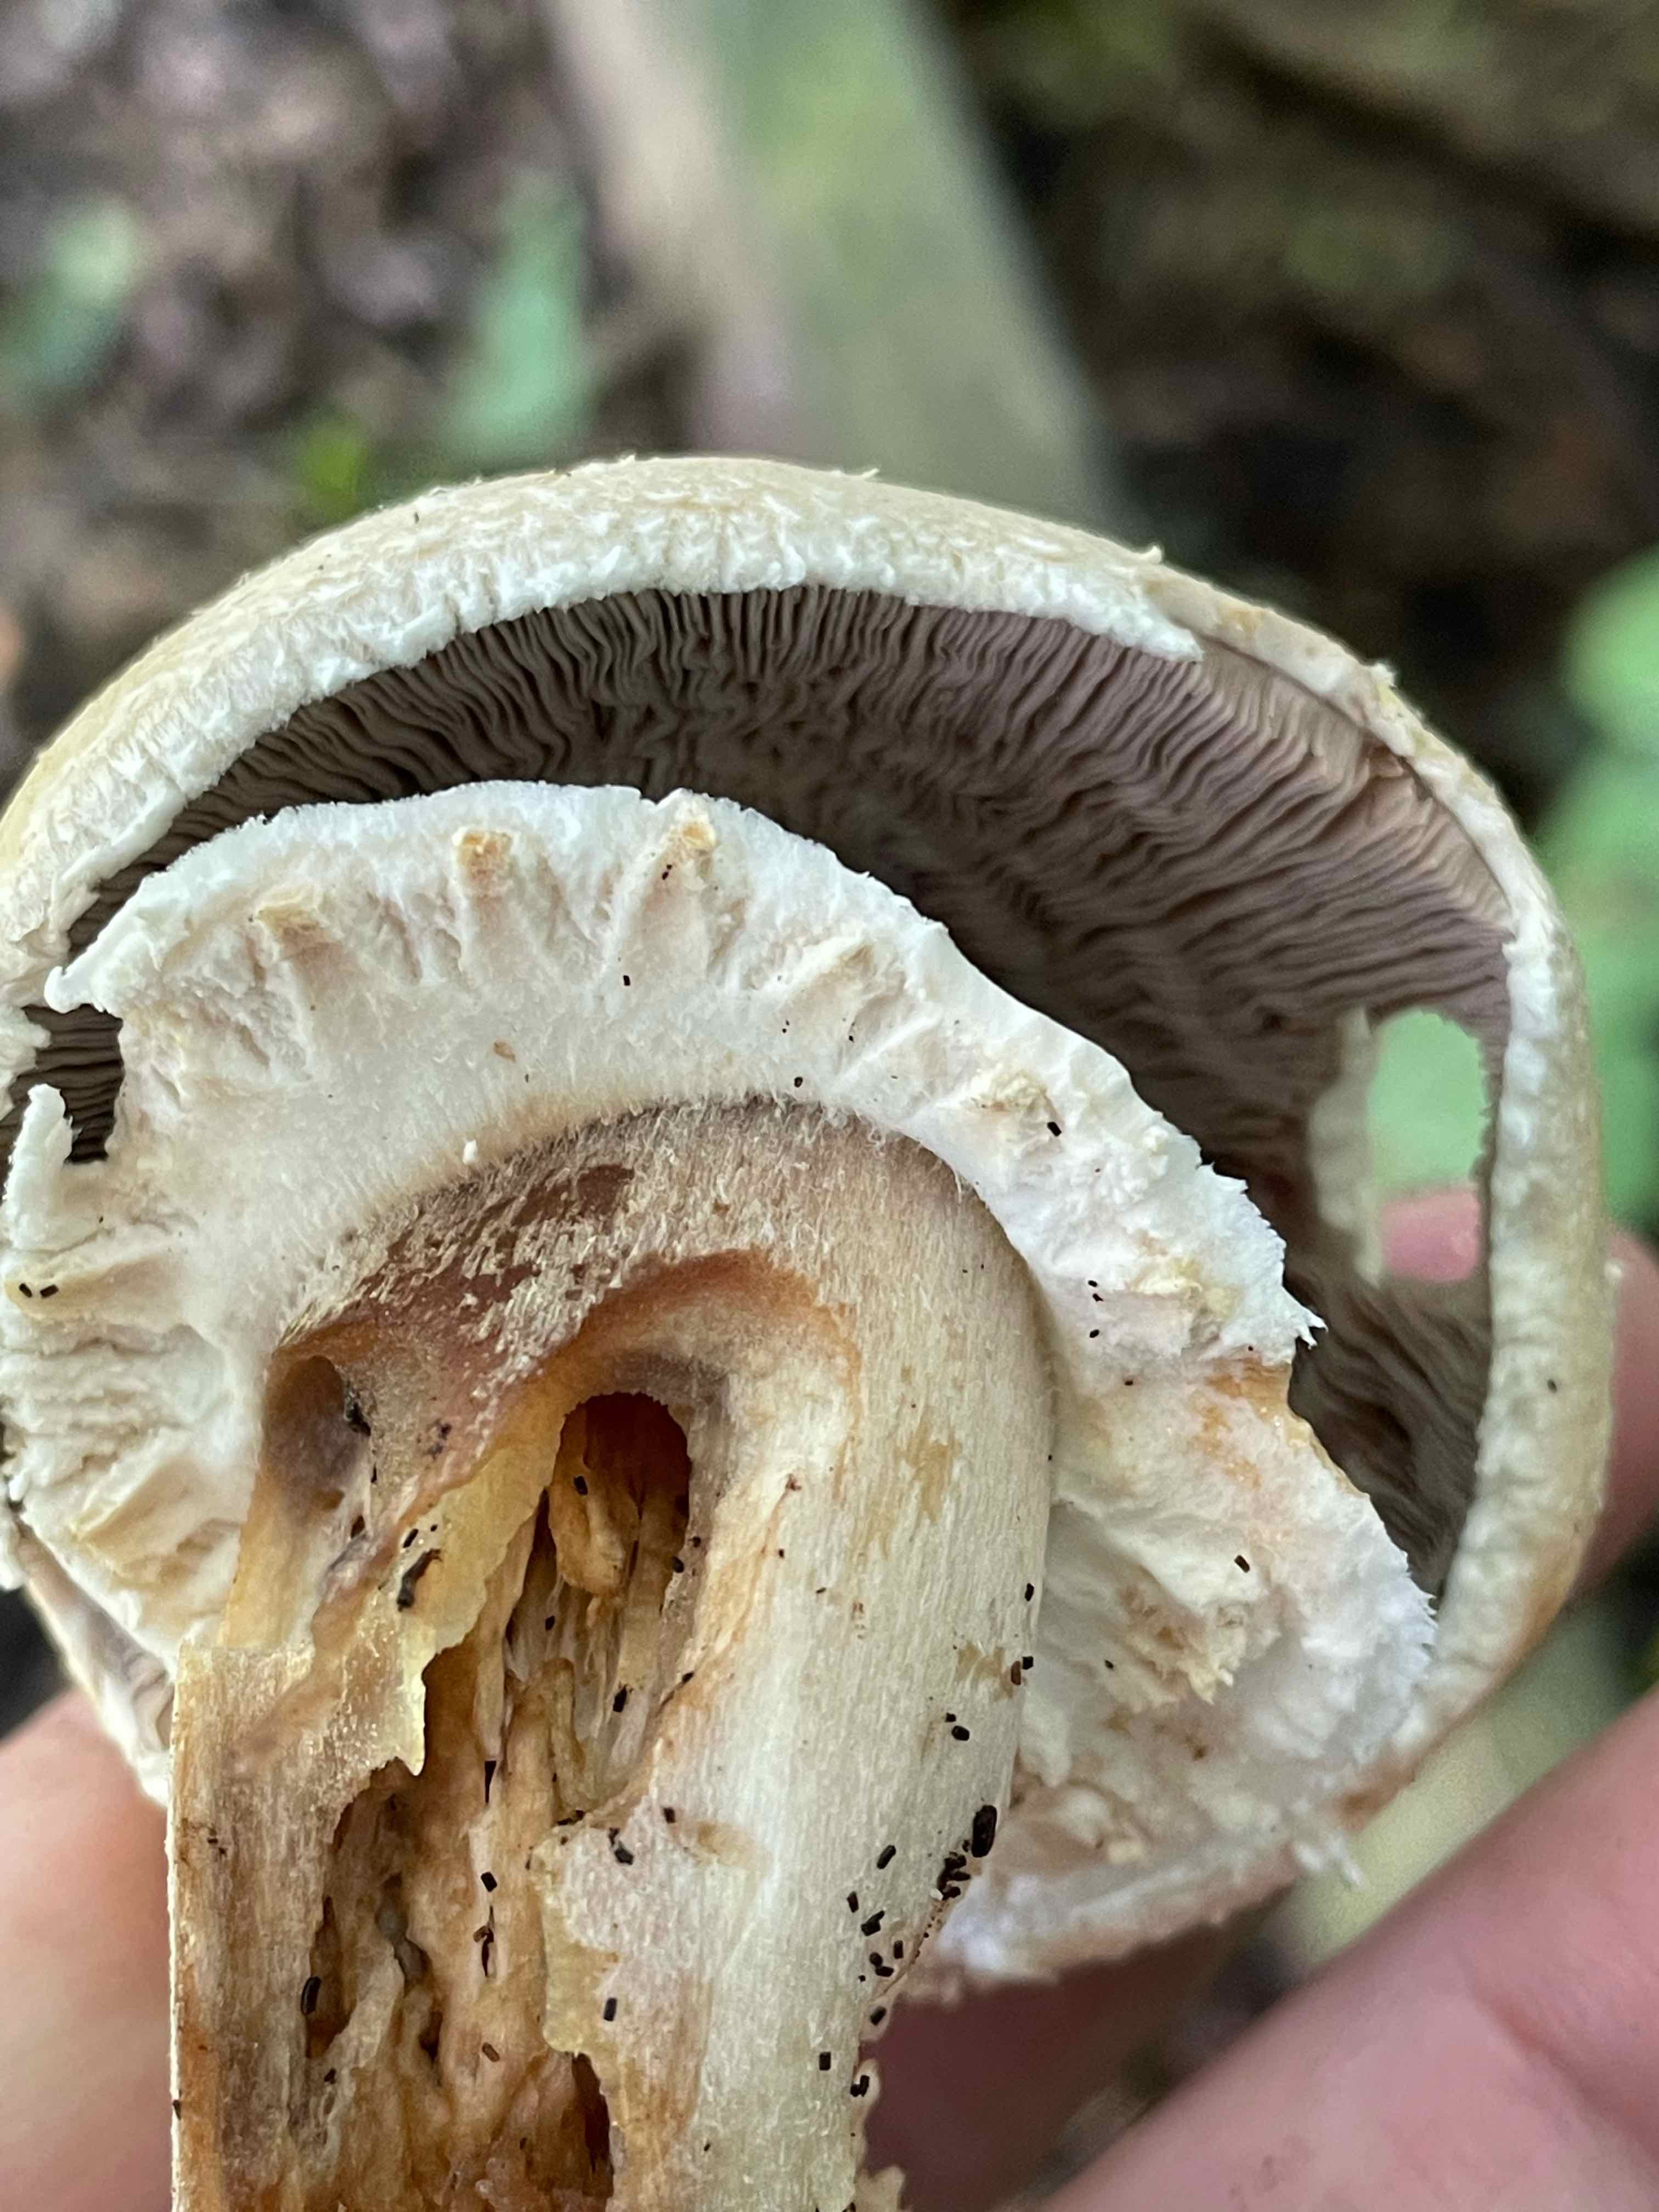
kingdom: Fungi
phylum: Basidiomycota
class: Agaricomycetes
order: Agaricales
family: Agaricaceae
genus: Agaricus
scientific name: Agaricus arvensis
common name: ager-champignon
